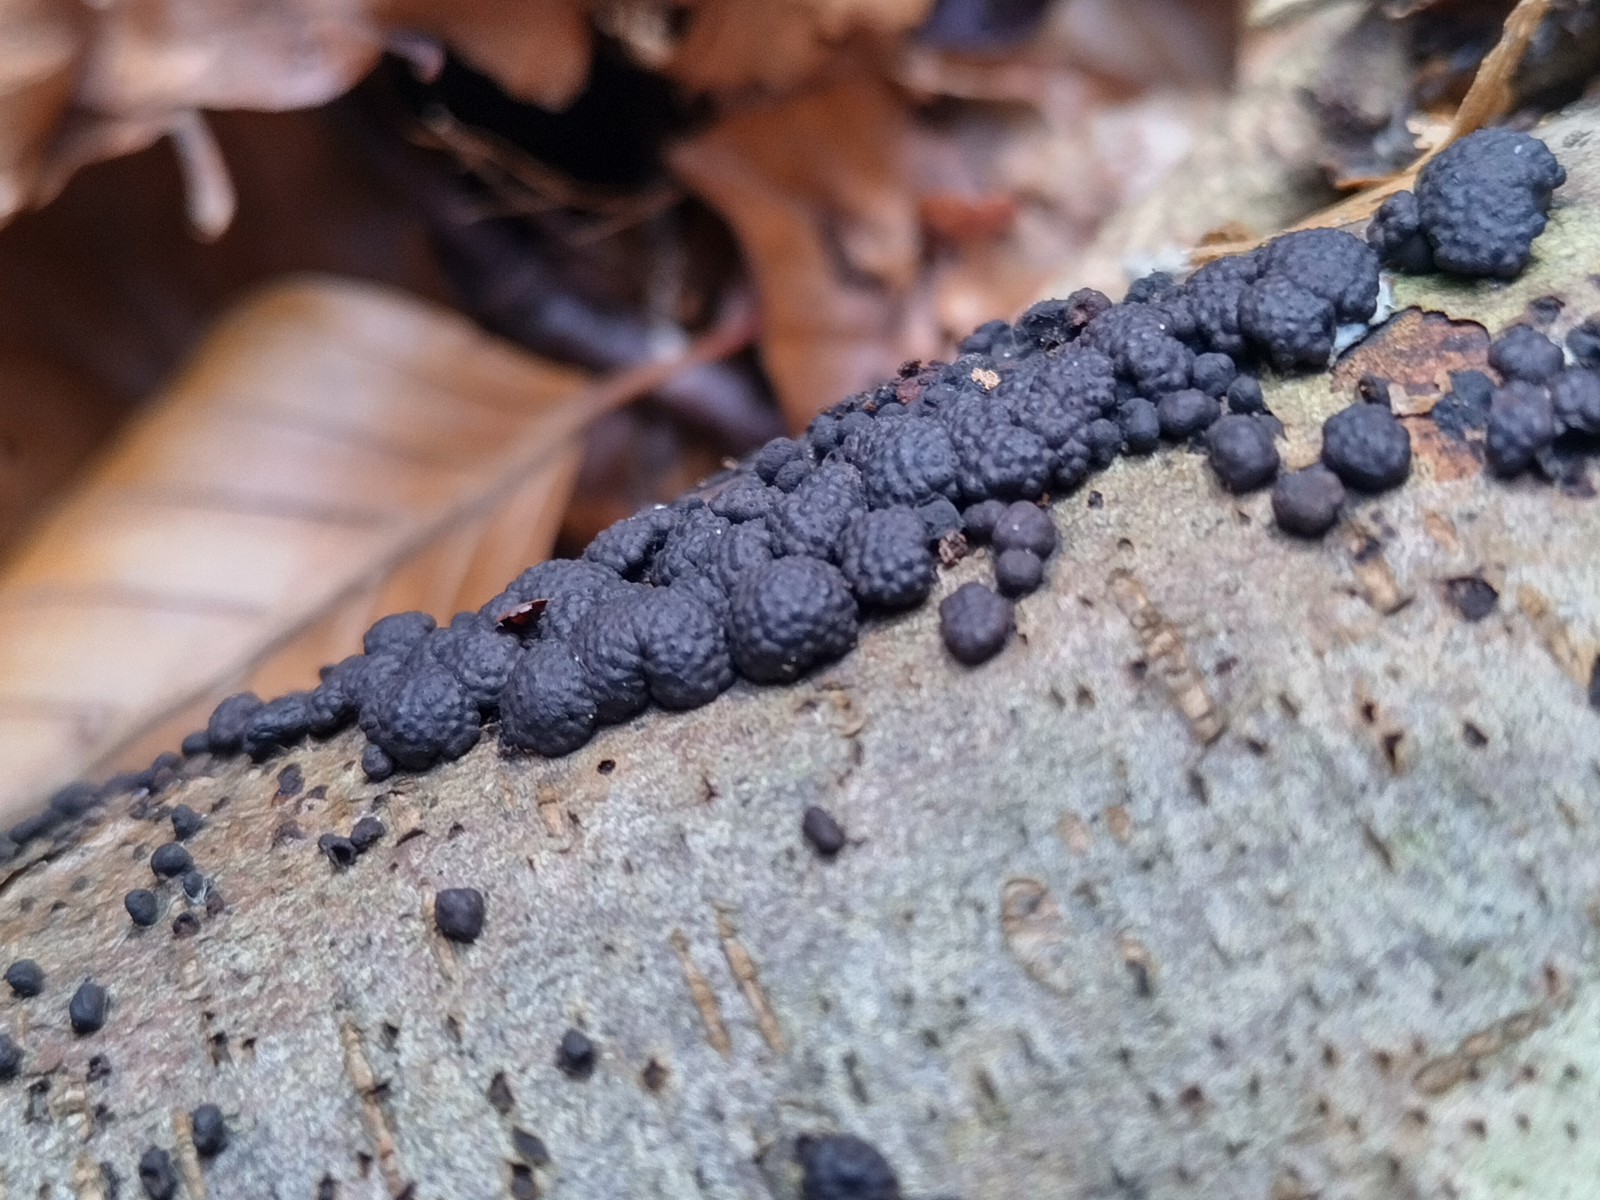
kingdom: Fungi
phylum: Ascomycota
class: Sordariomycetes
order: Xylariales
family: Hypoxylaceae
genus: Jackrogersella
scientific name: Jackrogersella multiformis
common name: foranderlig kulbær
